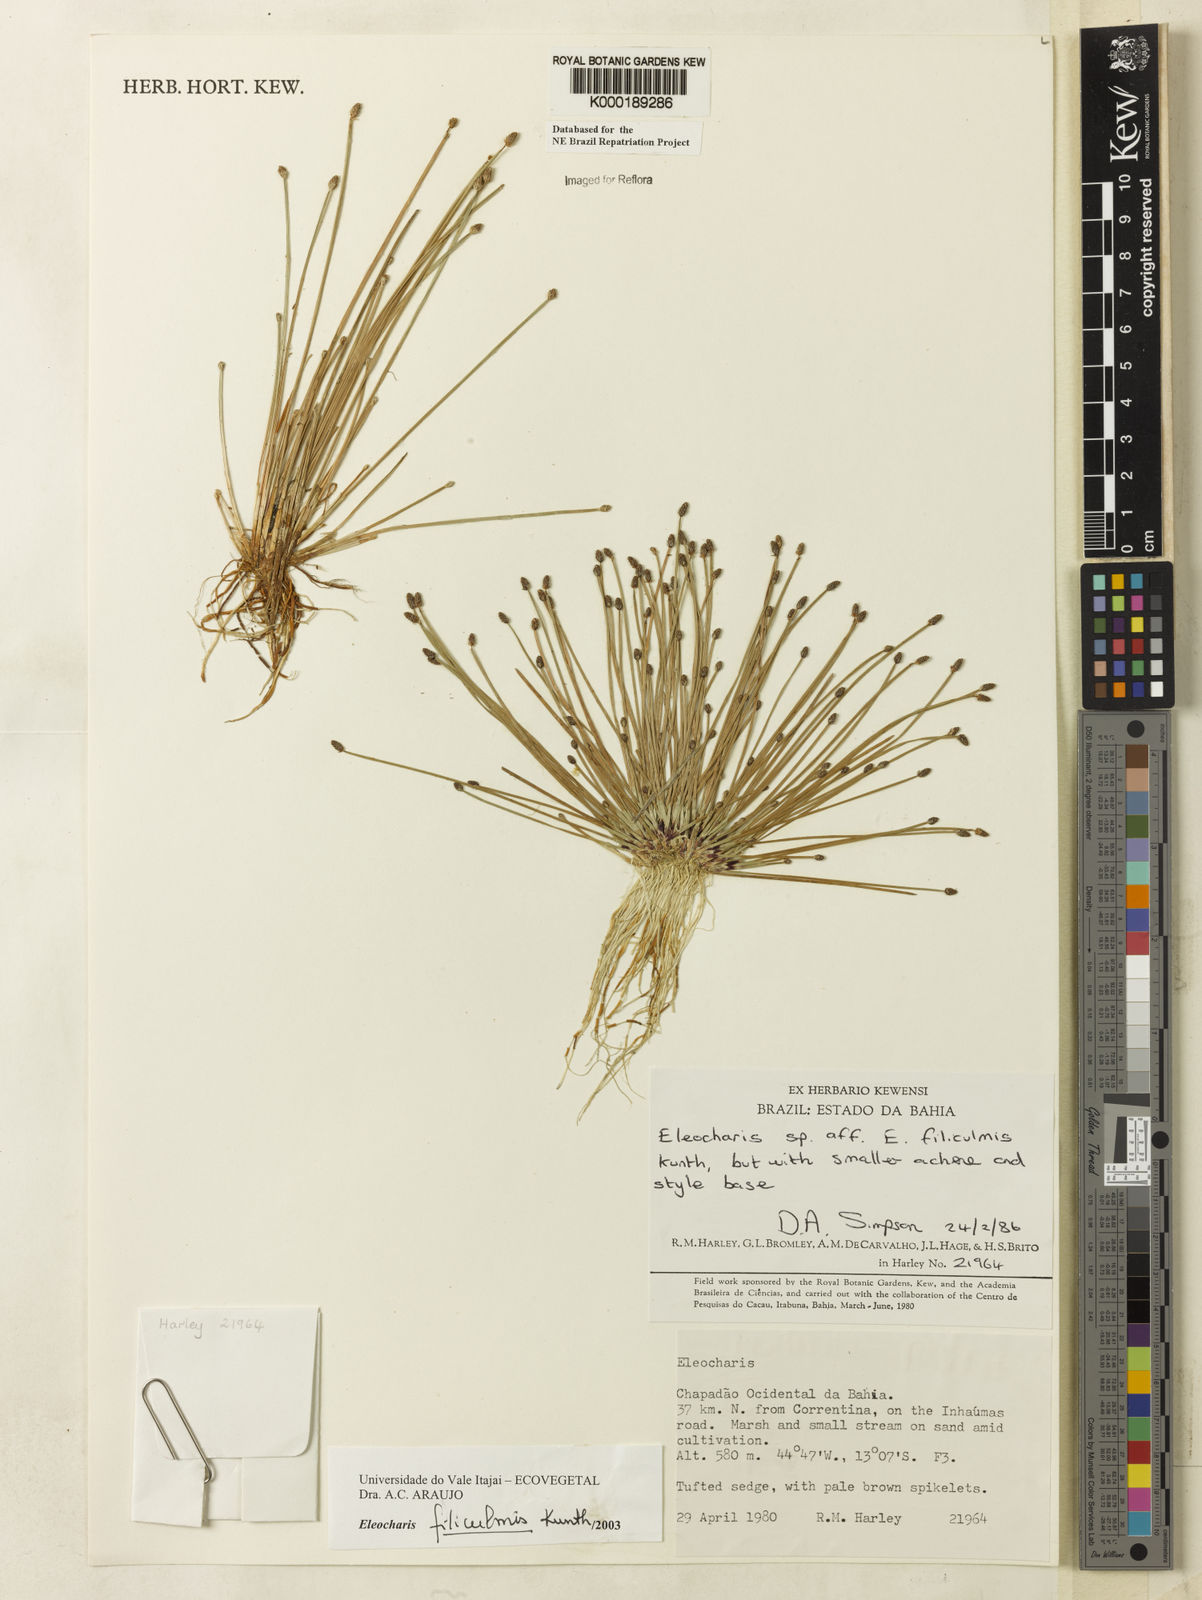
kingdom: Plantae
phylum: Tracheophyta
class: Liliopsida
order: Poales
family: Cyperaceae
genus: Eleocharis
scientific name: Eleocharis filiculmis
